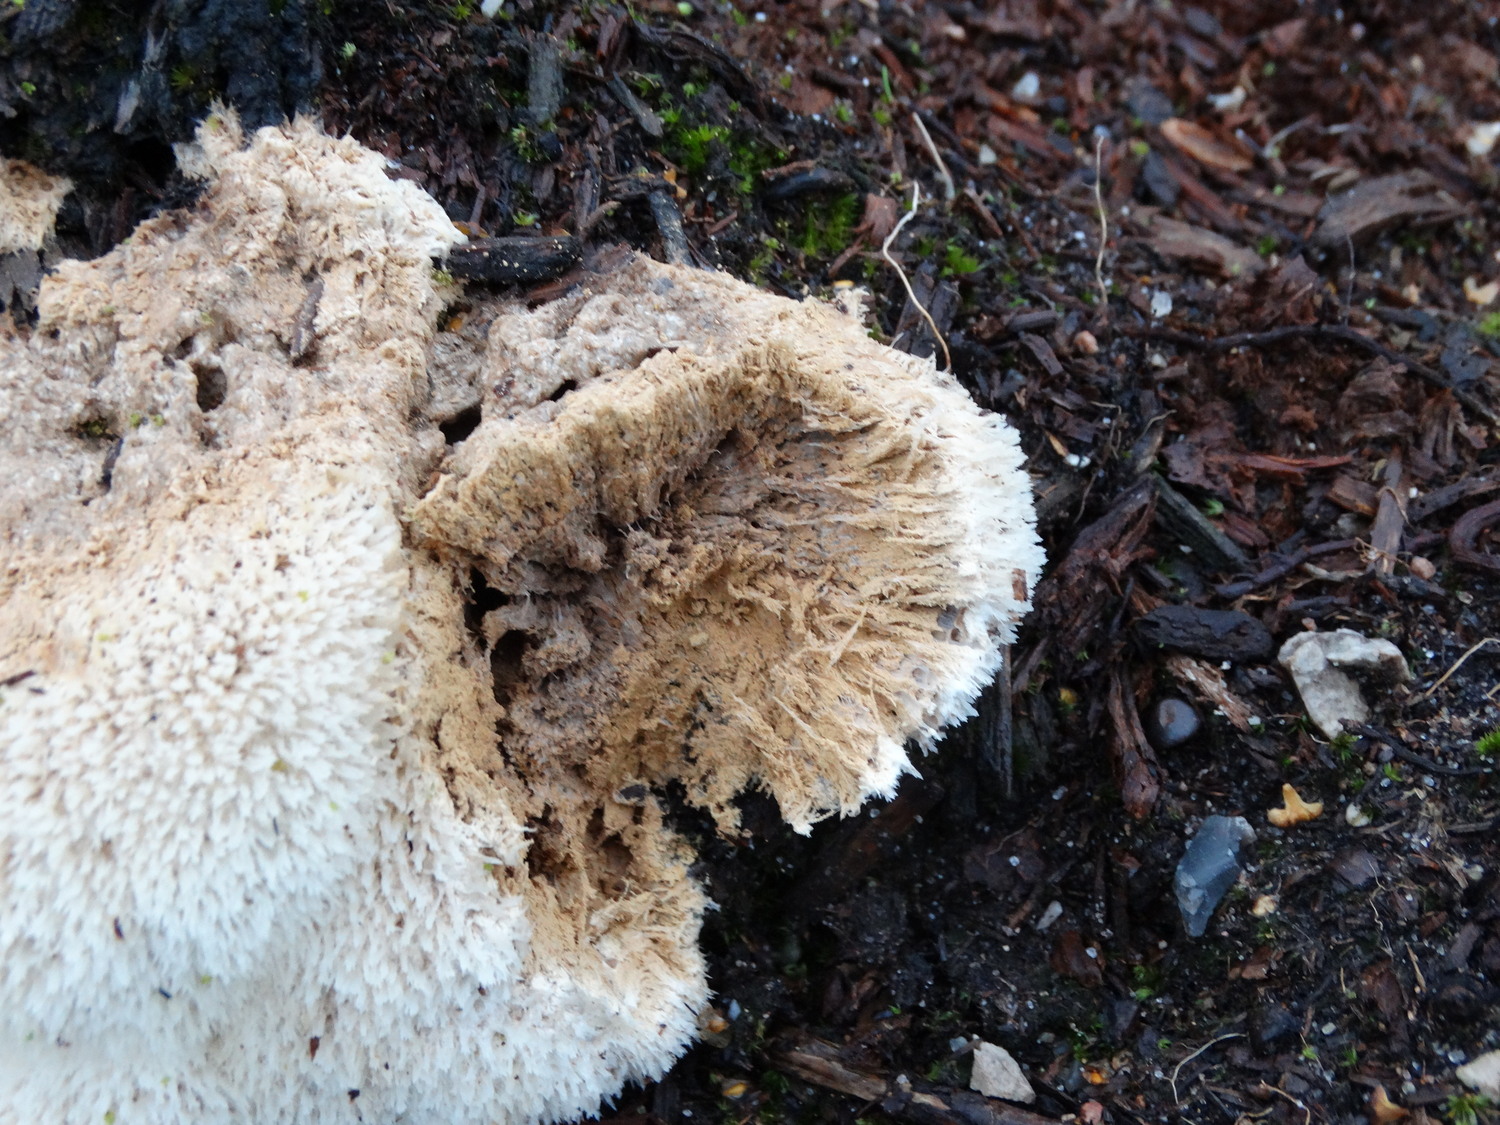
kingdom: Fungi
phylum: Basidiomycota
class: Agaricomycetes
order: Polyporales
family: Dacryobolaceae
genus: Postia
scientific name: Postia ptychogaster
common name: støvende kødporesvamp
